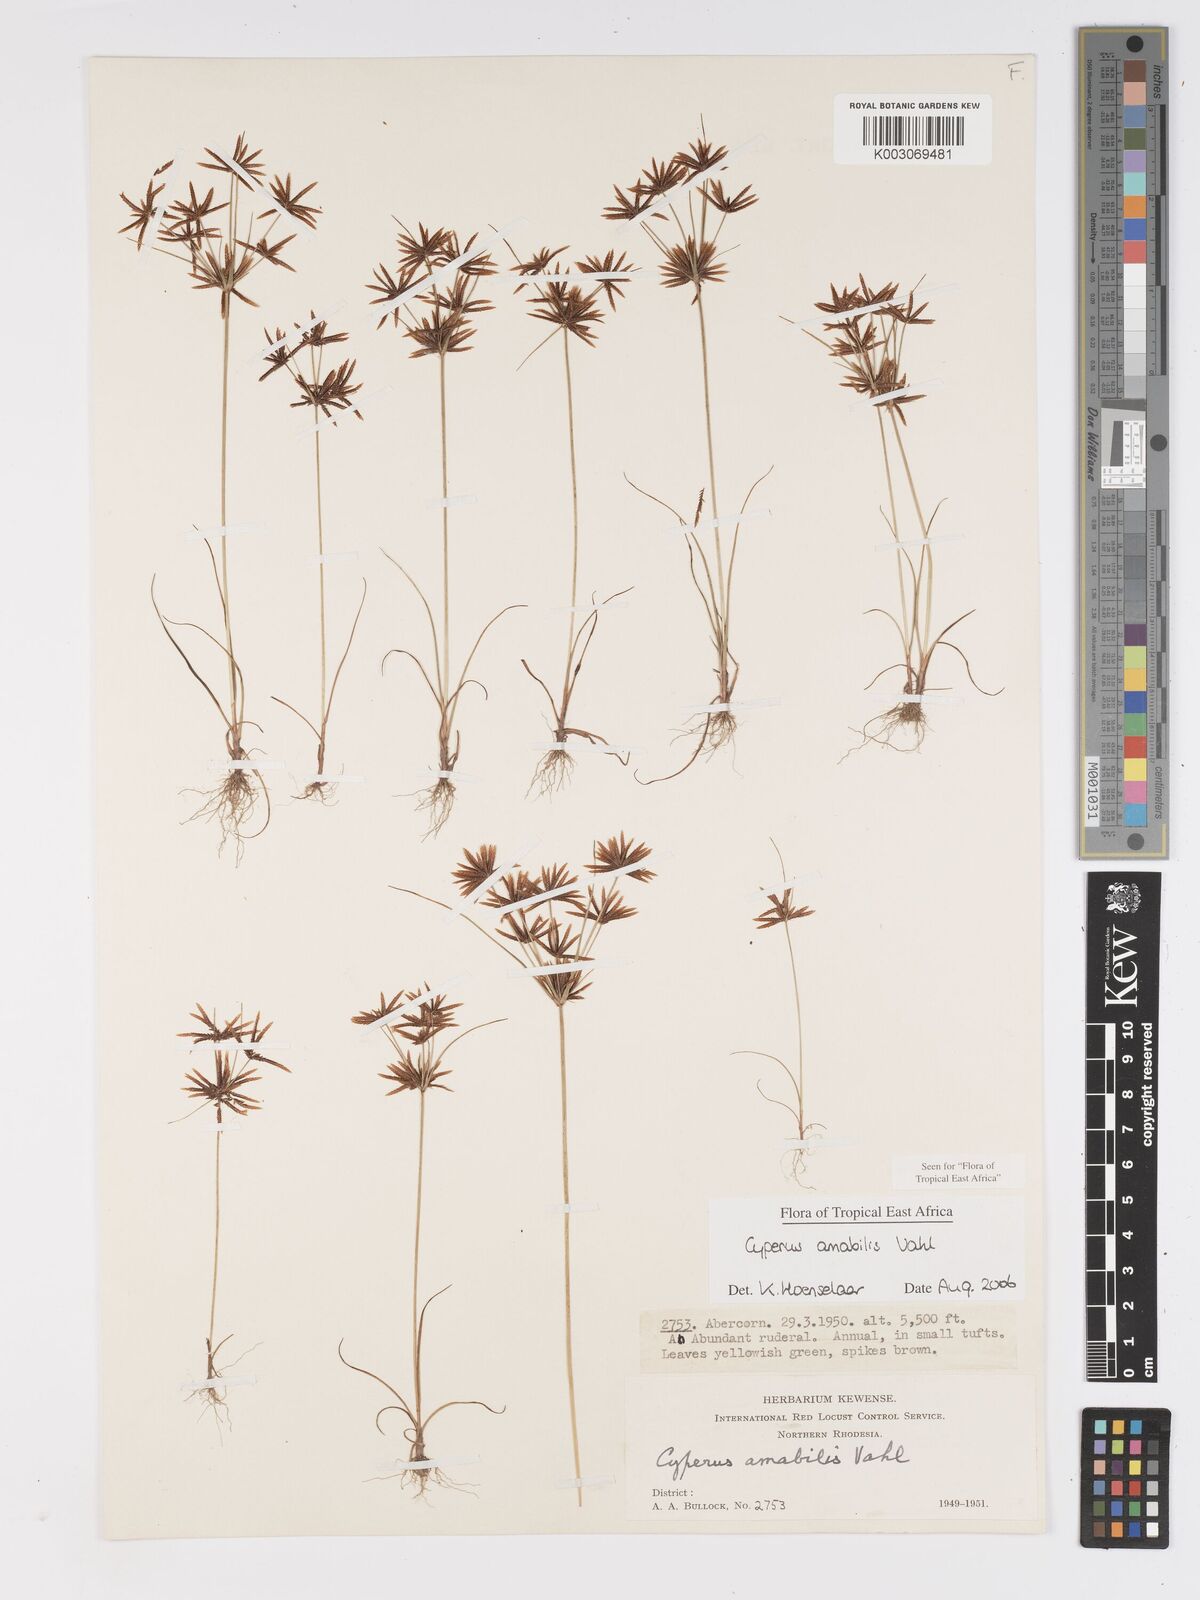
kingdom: Plantae
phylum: Tracheophyta
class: Liliopsida
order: Poales
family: Cyperaceae
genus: Cyperus
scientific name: Cyperus amabilis
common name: Foothill flat sedge
